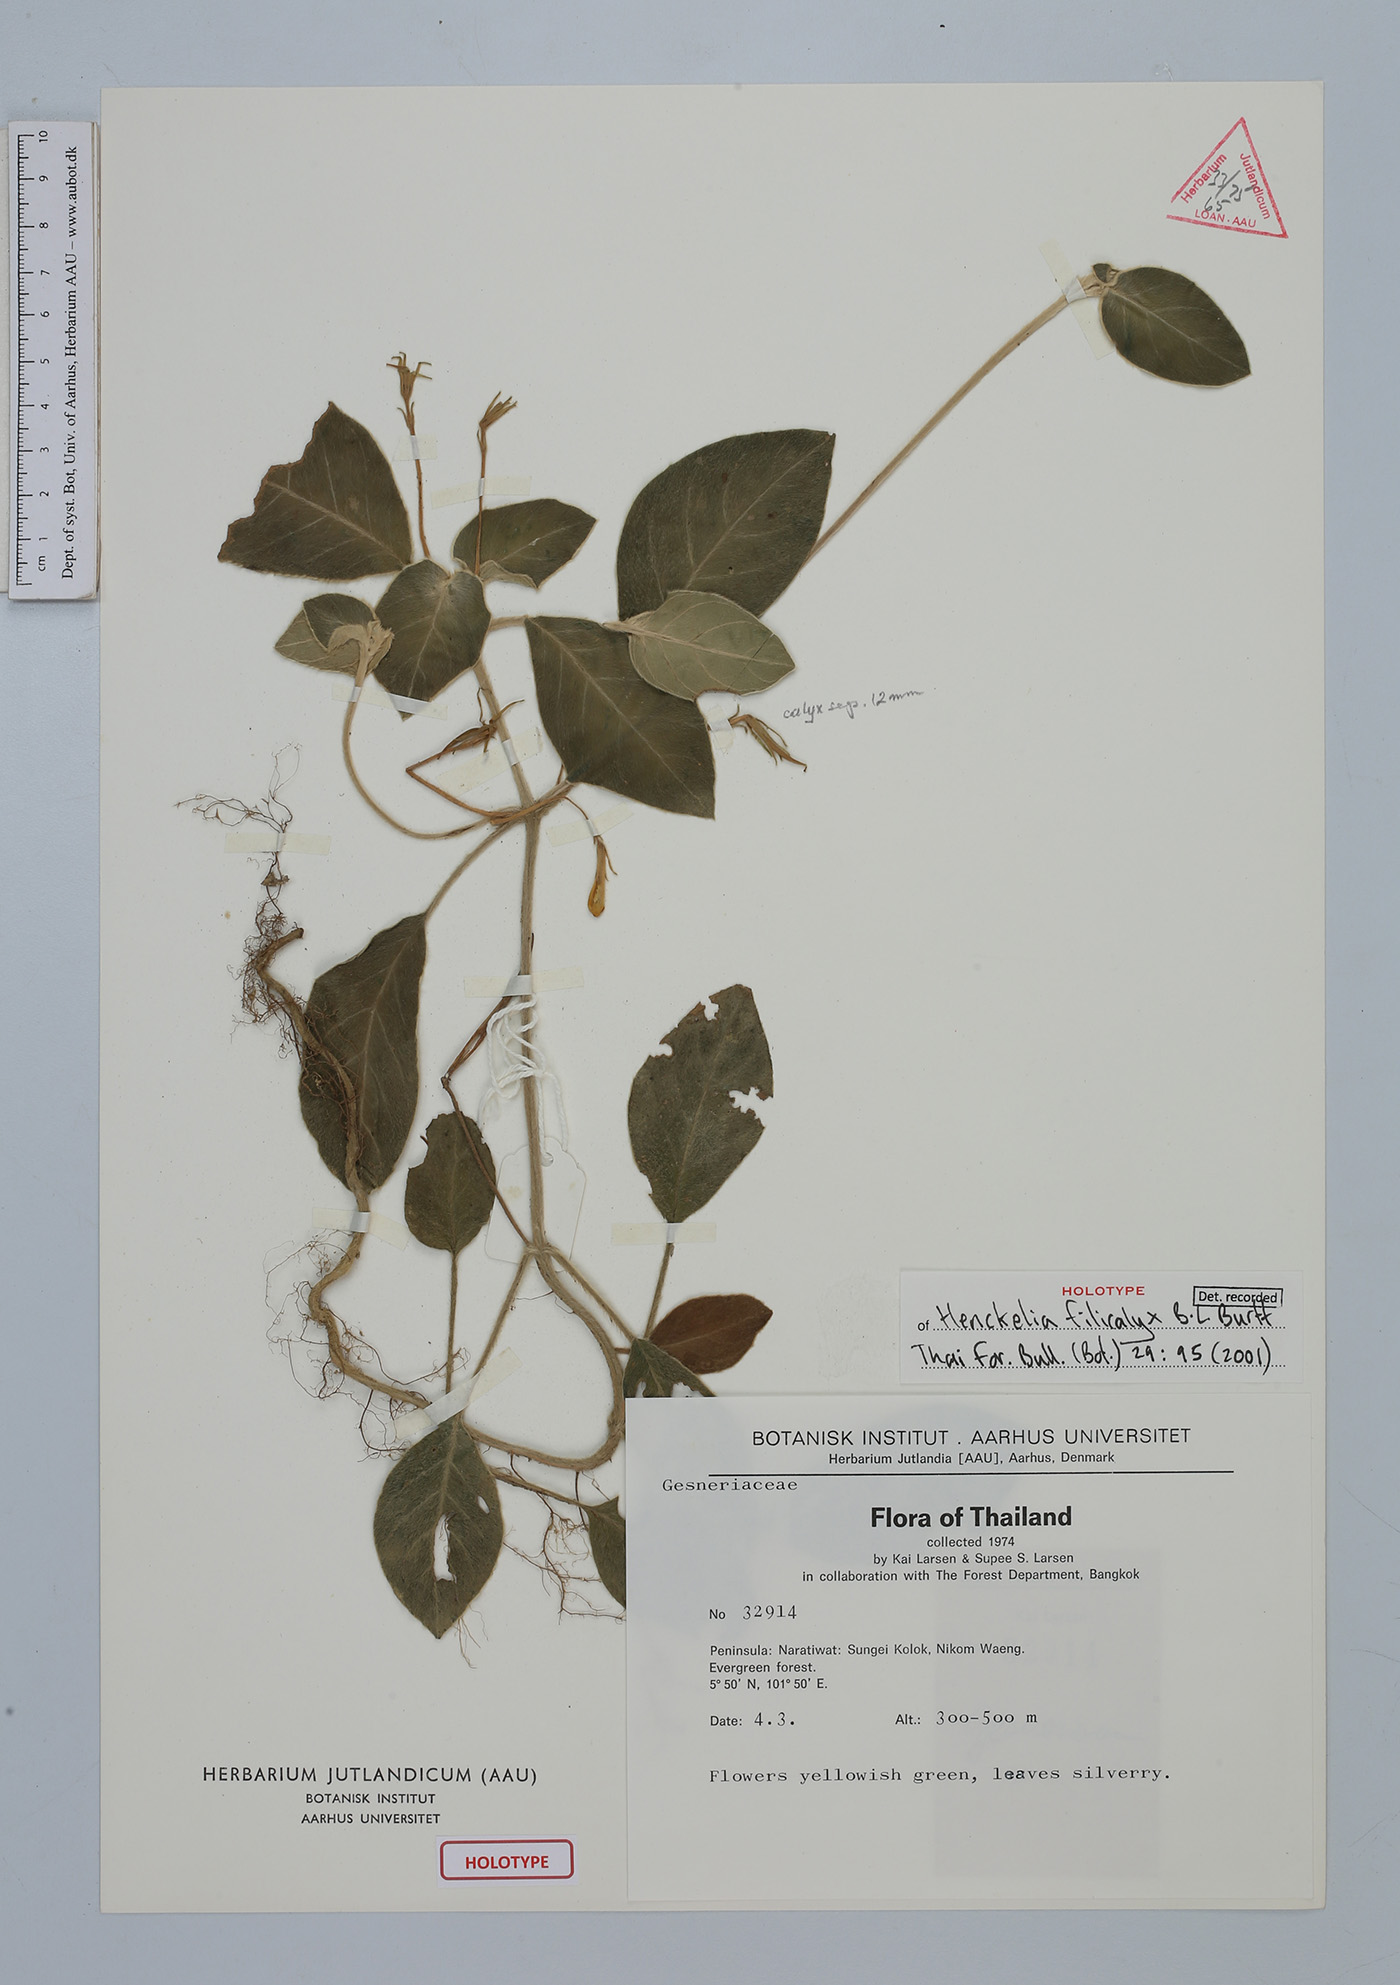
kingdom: Plantae
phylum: Tracheophyta
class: Magnoliopsida
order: Lamiales
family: Gesneriaceae
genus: Codonoboea
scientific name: Codonoboea filicalyx
